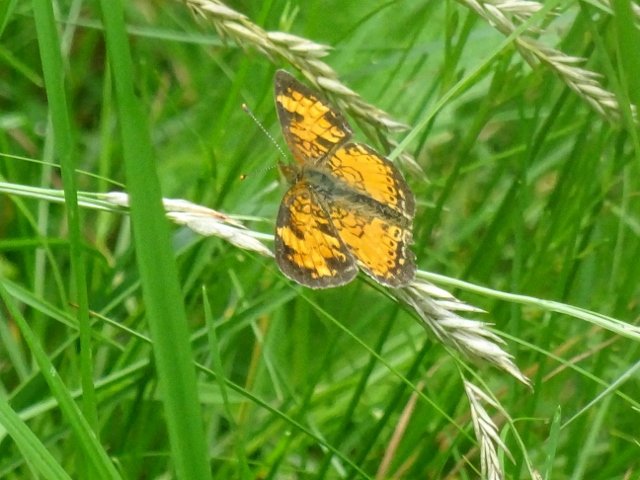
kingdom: Animalia
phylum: Arthropoda
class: Insecta
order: Lepidoptera
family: Nymphalidae
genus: Phyciodes
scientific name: Phyciodes tharos
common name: Northern Crescent
